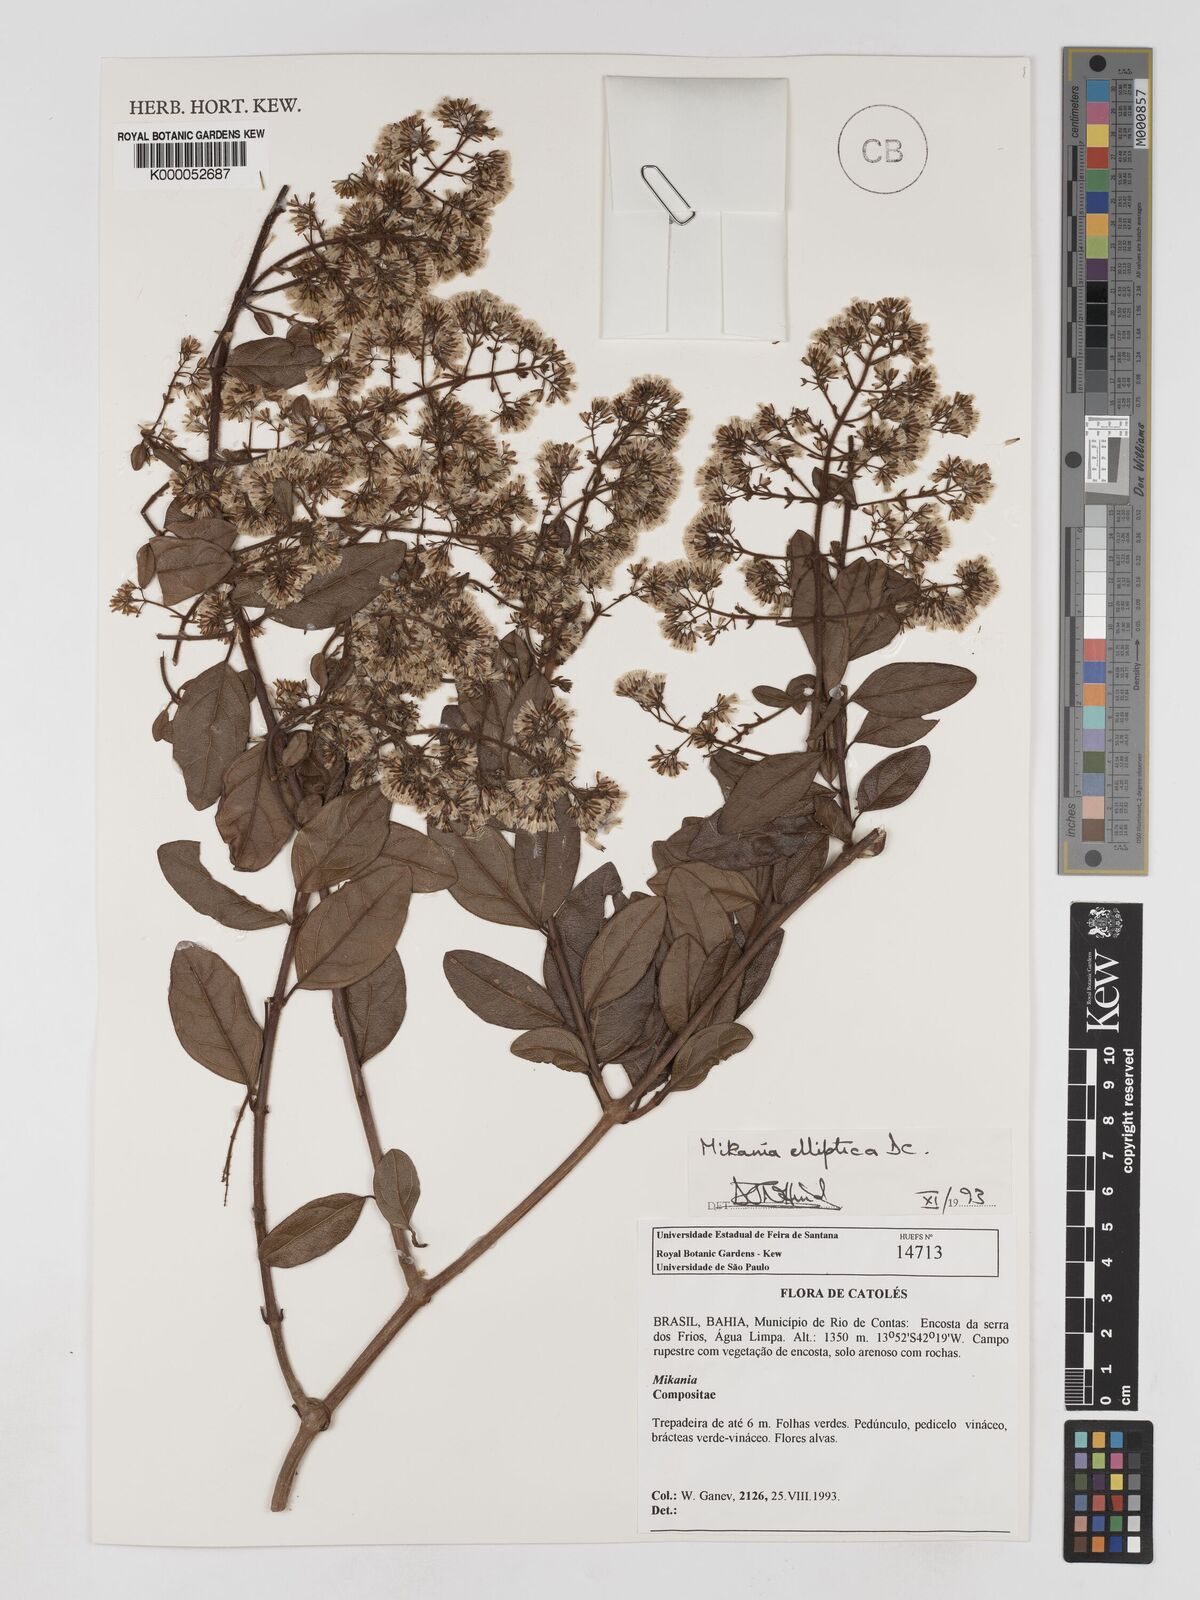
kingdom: Plantae
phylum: Tracheophyta
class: Magnoliopsida
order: Asterales
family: Asteraceae
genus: Mikania
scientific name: Mikania elliptica
